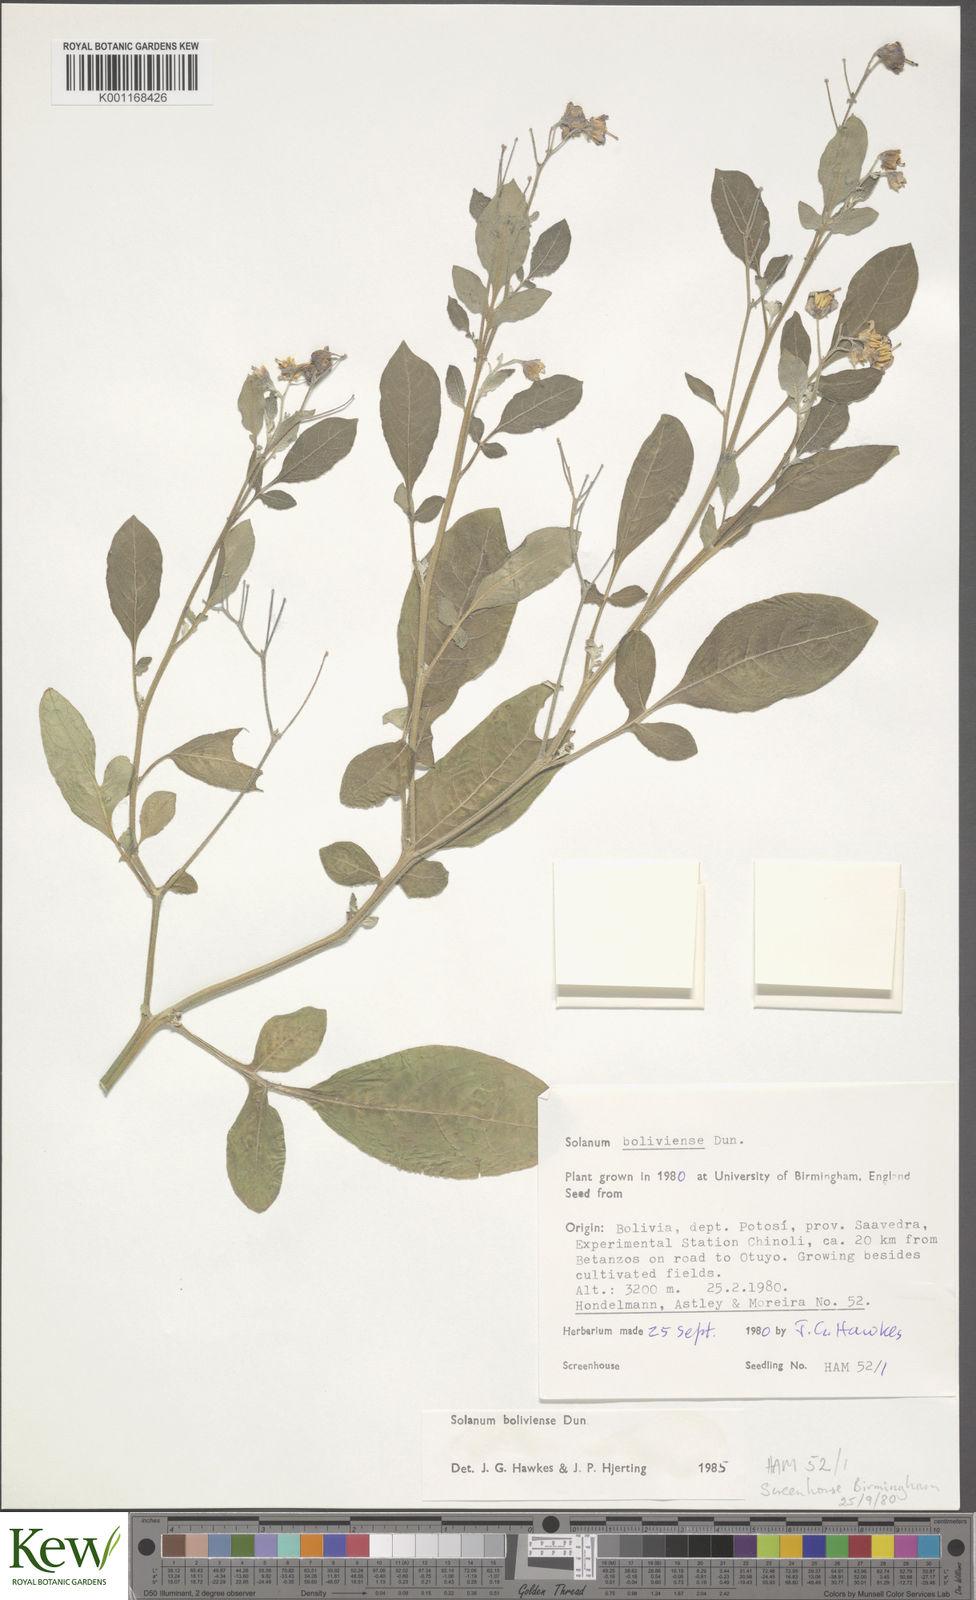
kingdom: Plantae
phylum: Tracheophyta
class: Magnoliopsida
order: Solanales
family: Solanaceae
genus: Solanum
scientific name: Solanum boliviense
